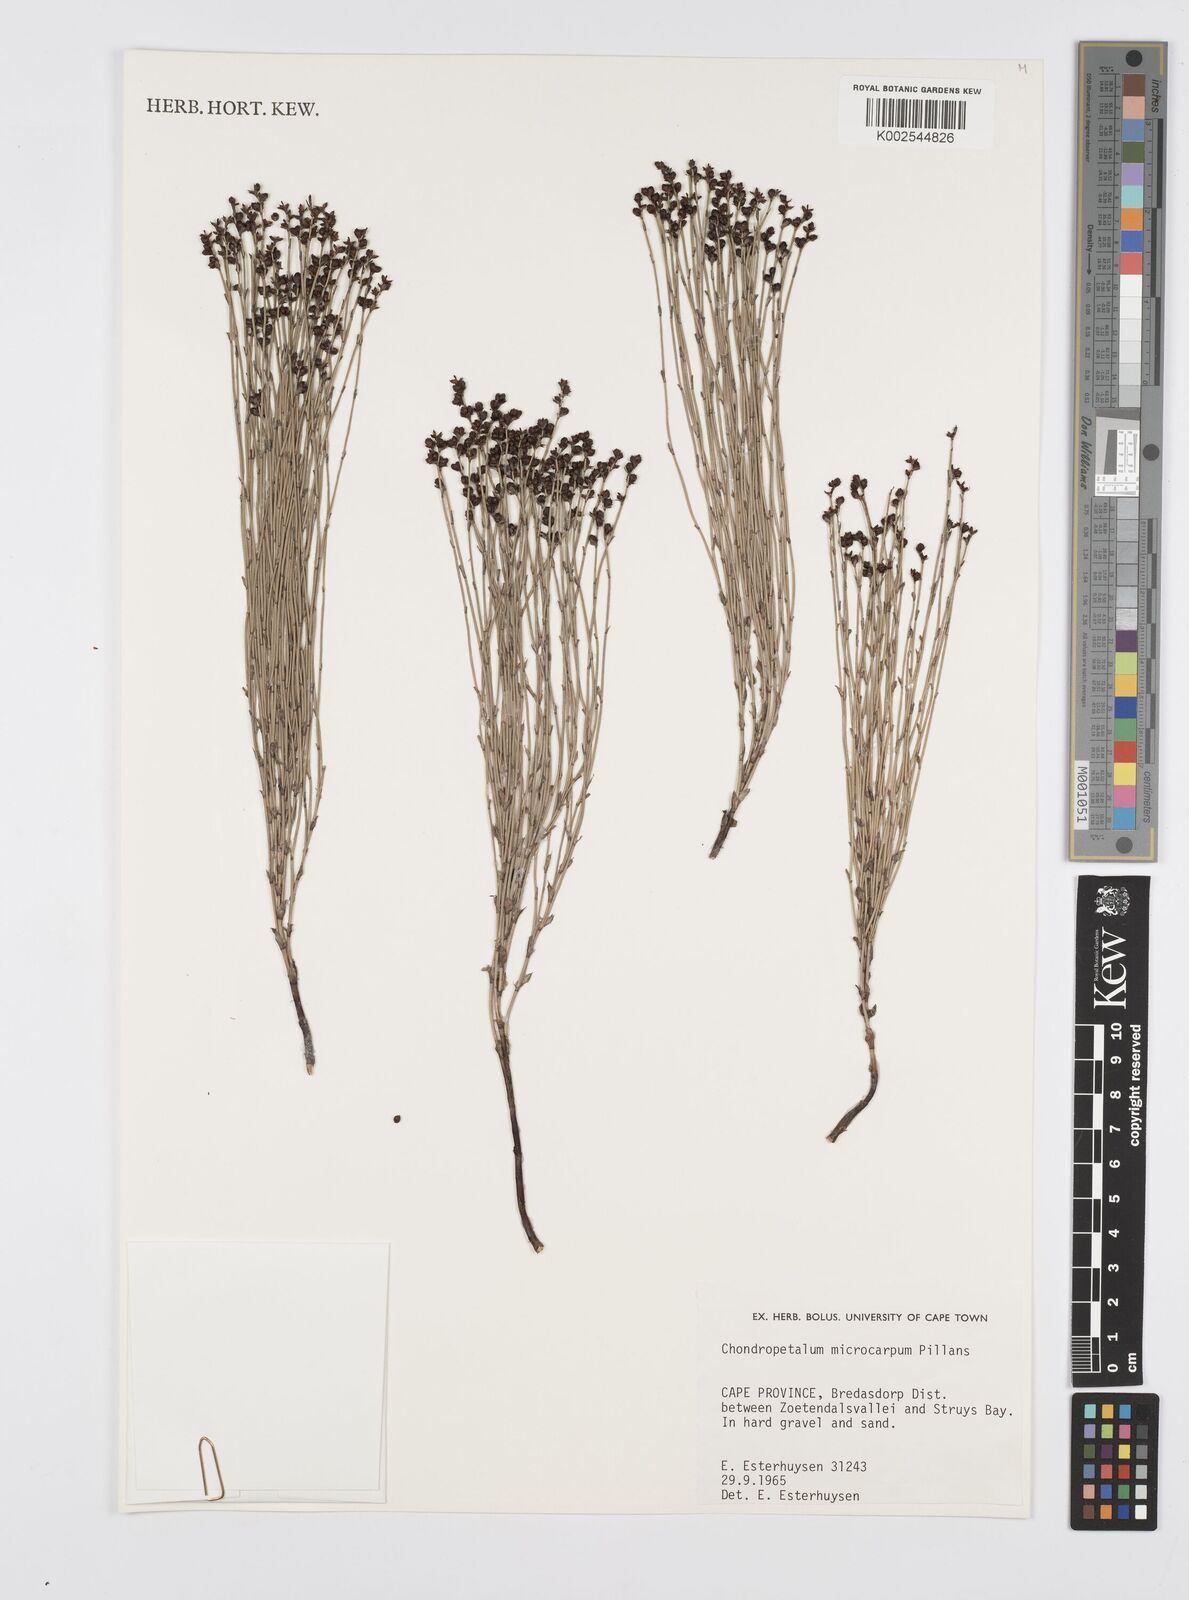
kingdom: Plantae
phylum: Tracheophyta
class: Liliopsida
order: Poales
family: Restionaceae
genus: Elegia
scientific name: Elegia microcarpa
